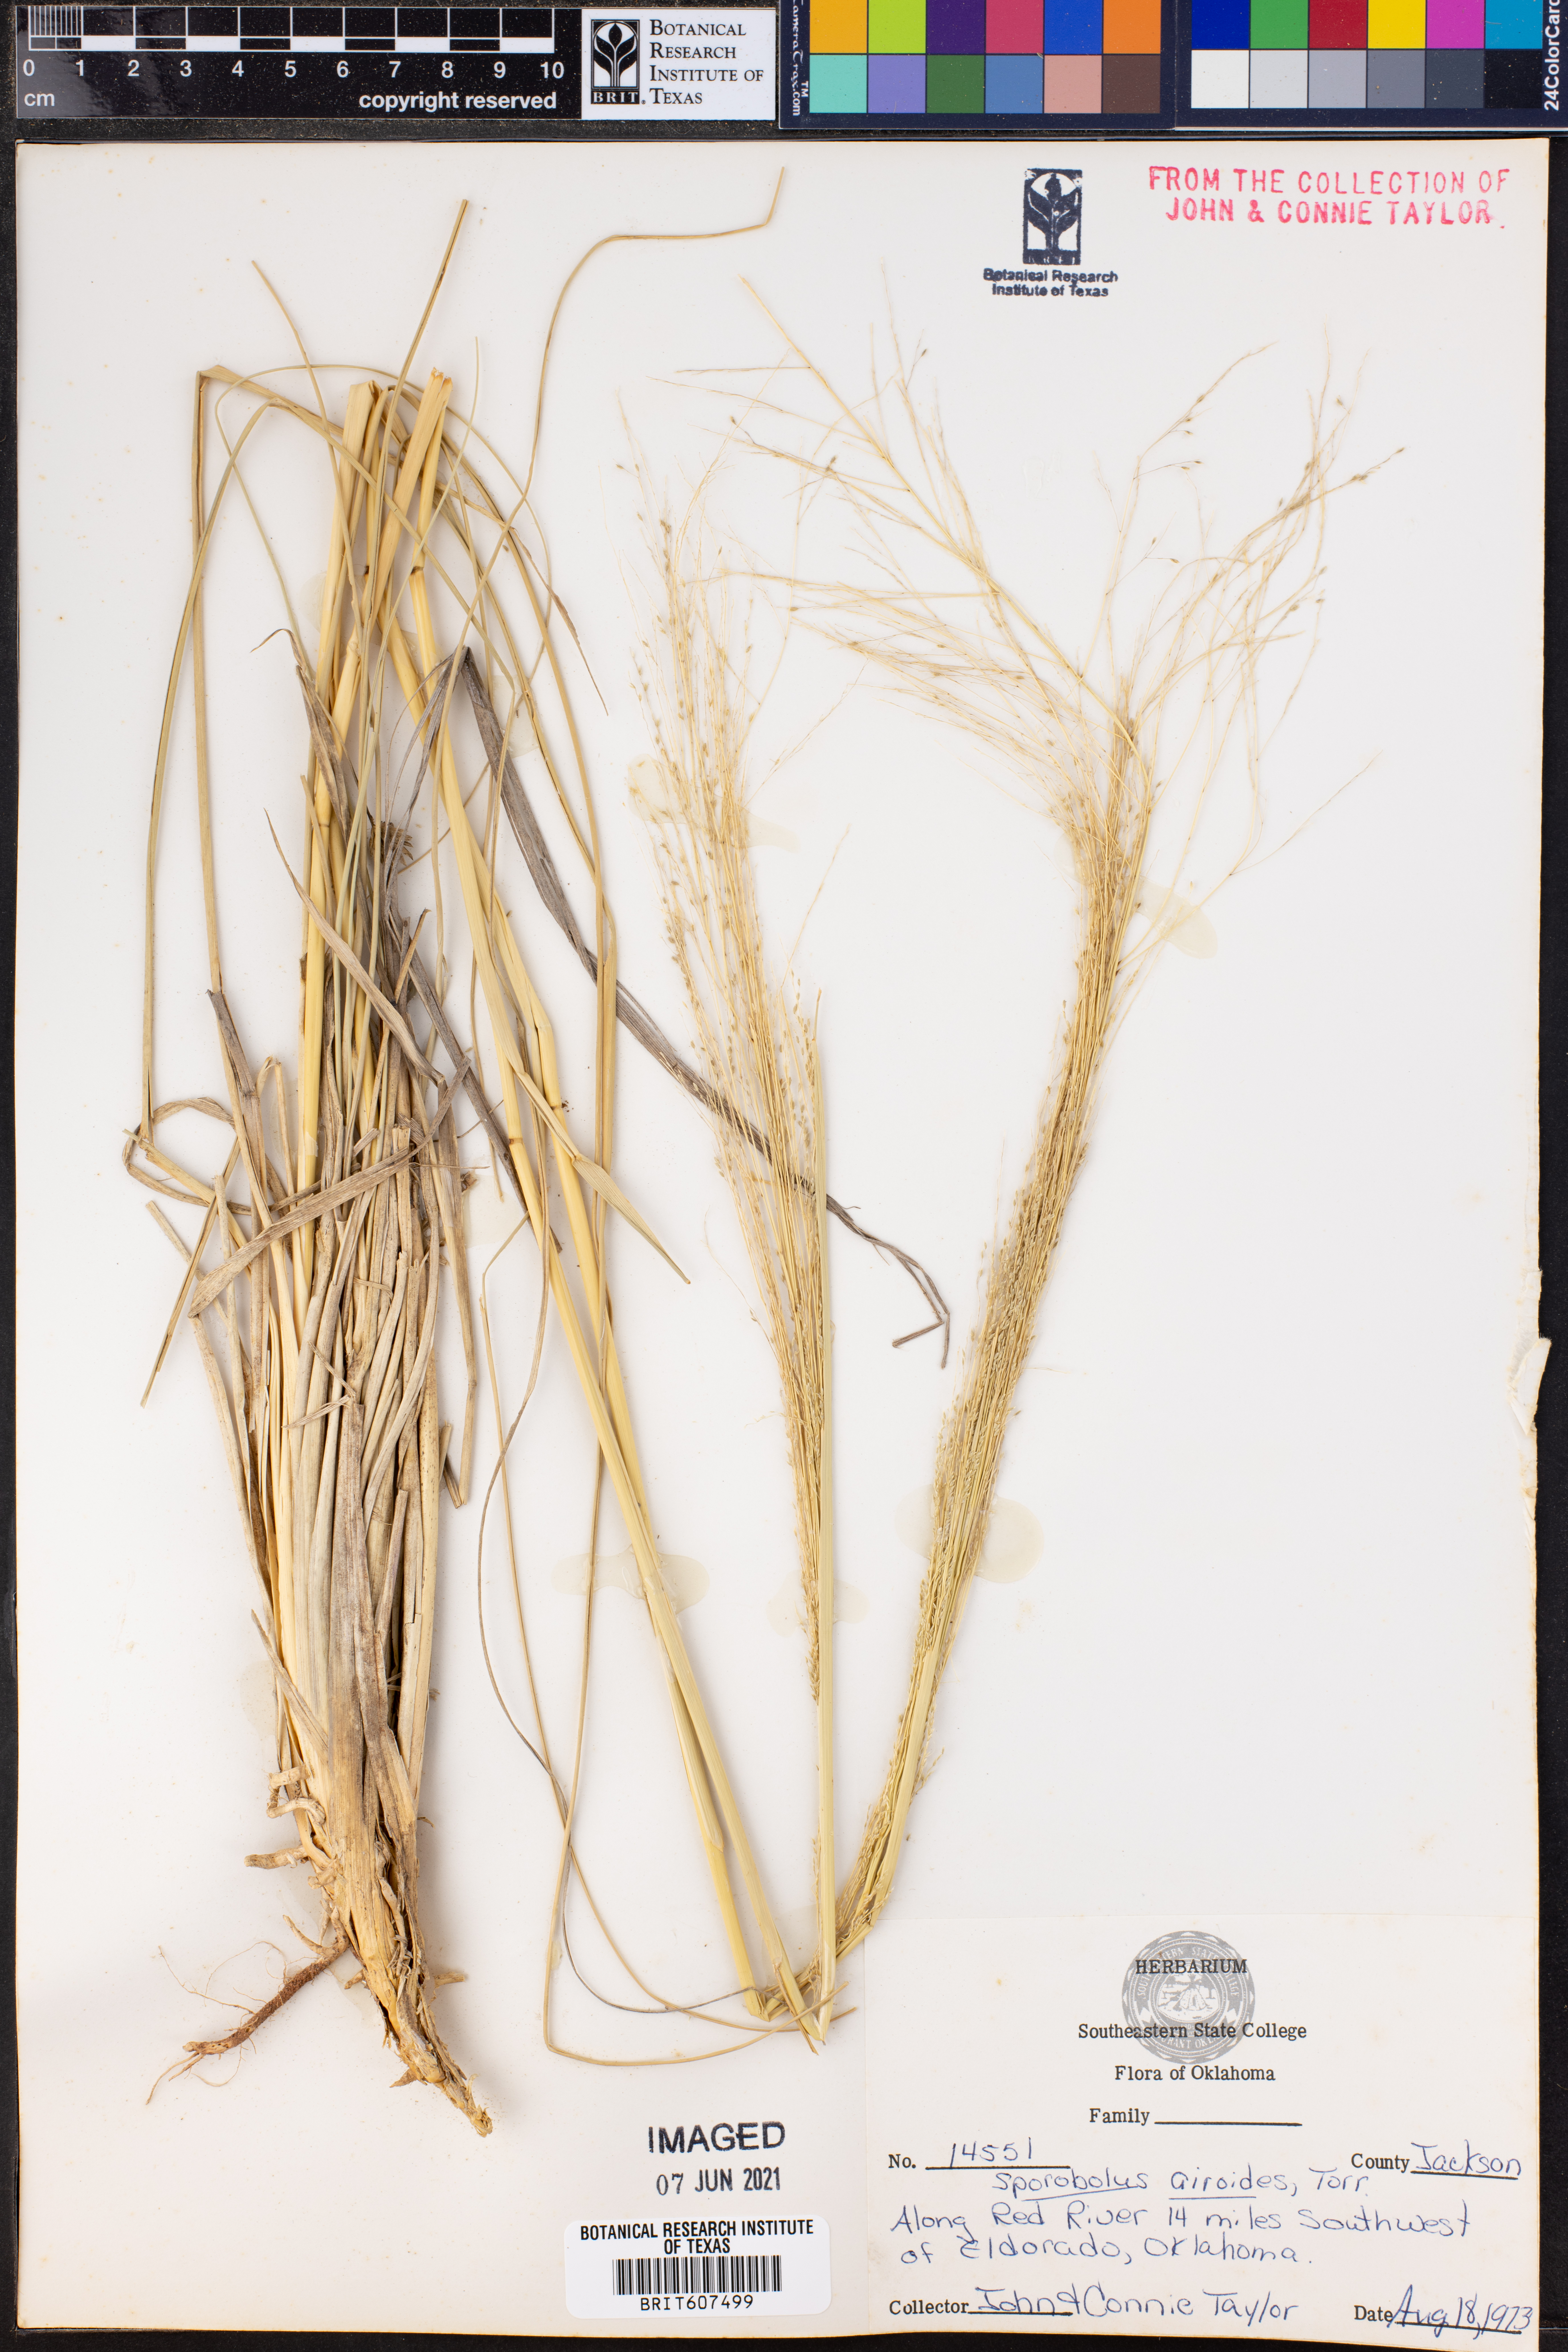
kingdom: Plantae
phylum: Tracheophyta
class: Liliopsida
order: Poales
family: Poaceae
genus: Sporobolus
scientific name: Sporobolus airoides
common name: Alkali sacaton
